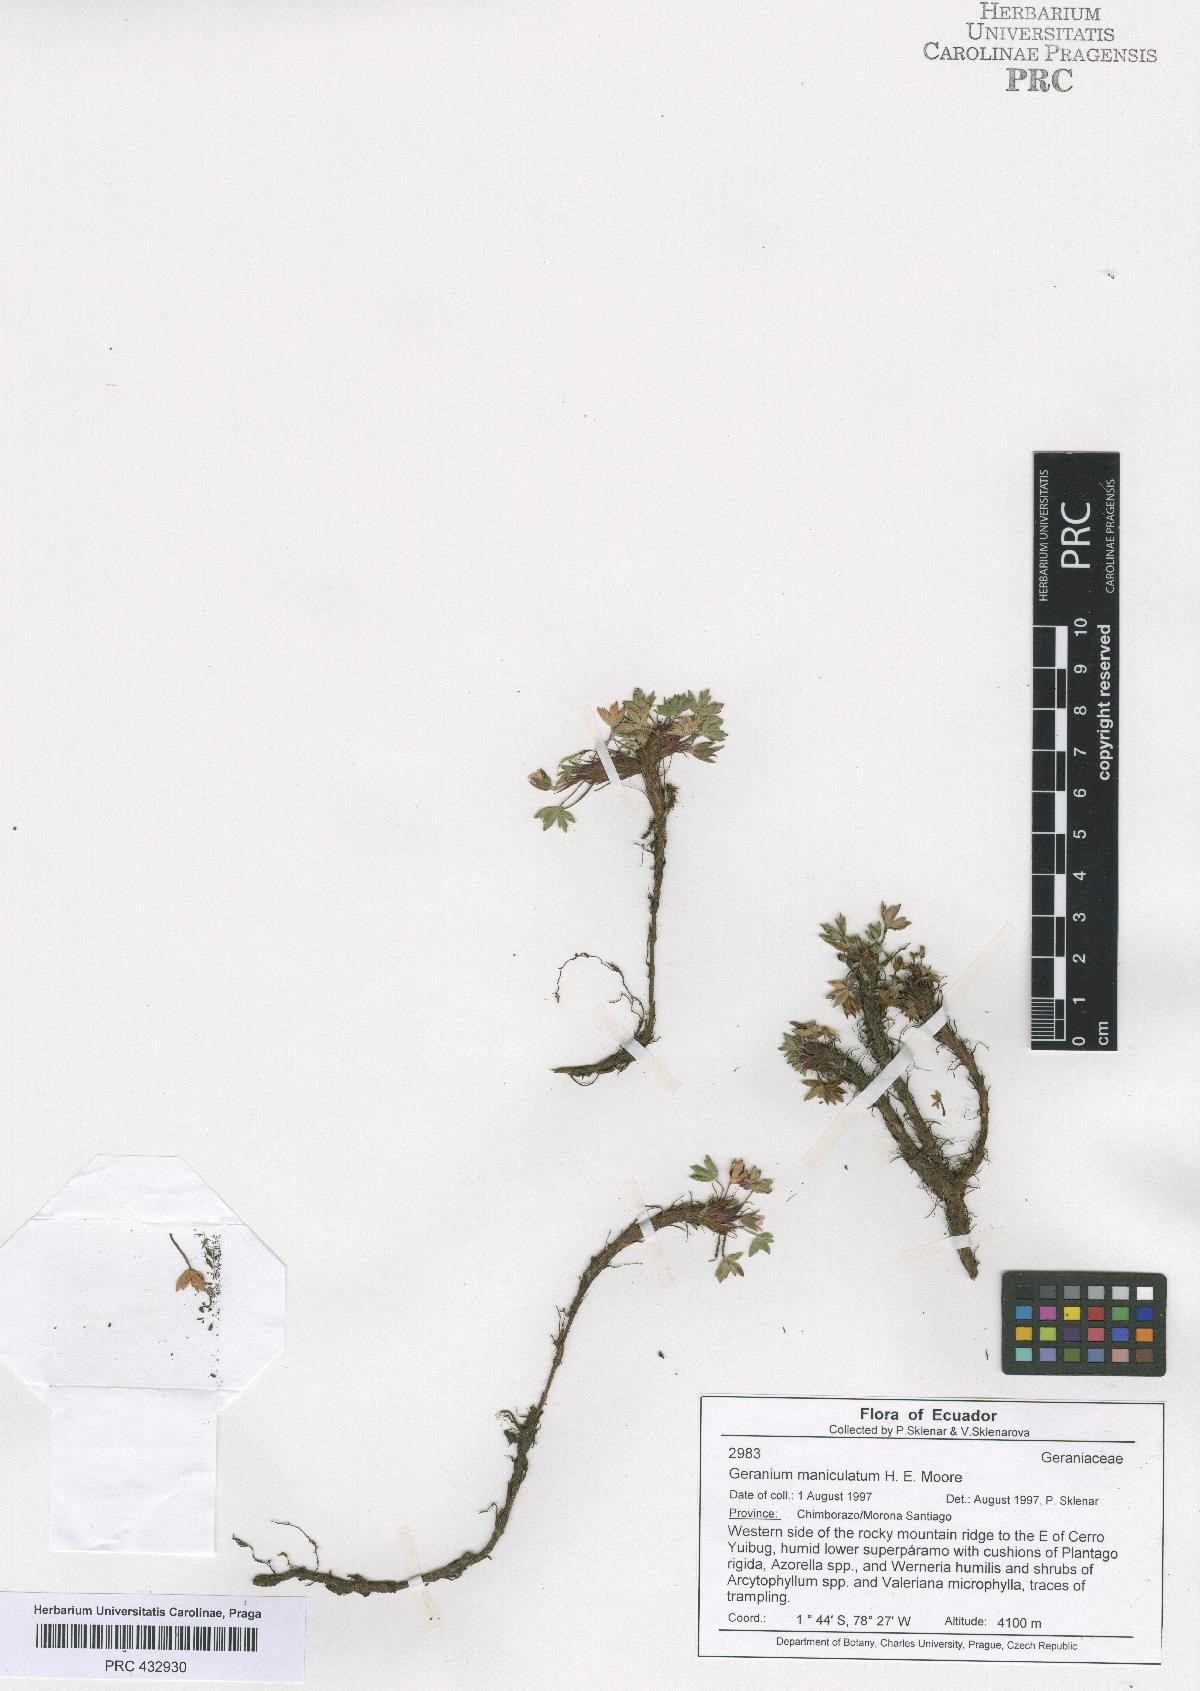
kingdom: Plantae
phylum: Tracheophyta
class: Magnoliopsida
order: Geraniales
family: Geraniaceae
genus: Geranium
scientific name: Geranium sibbaldioides
